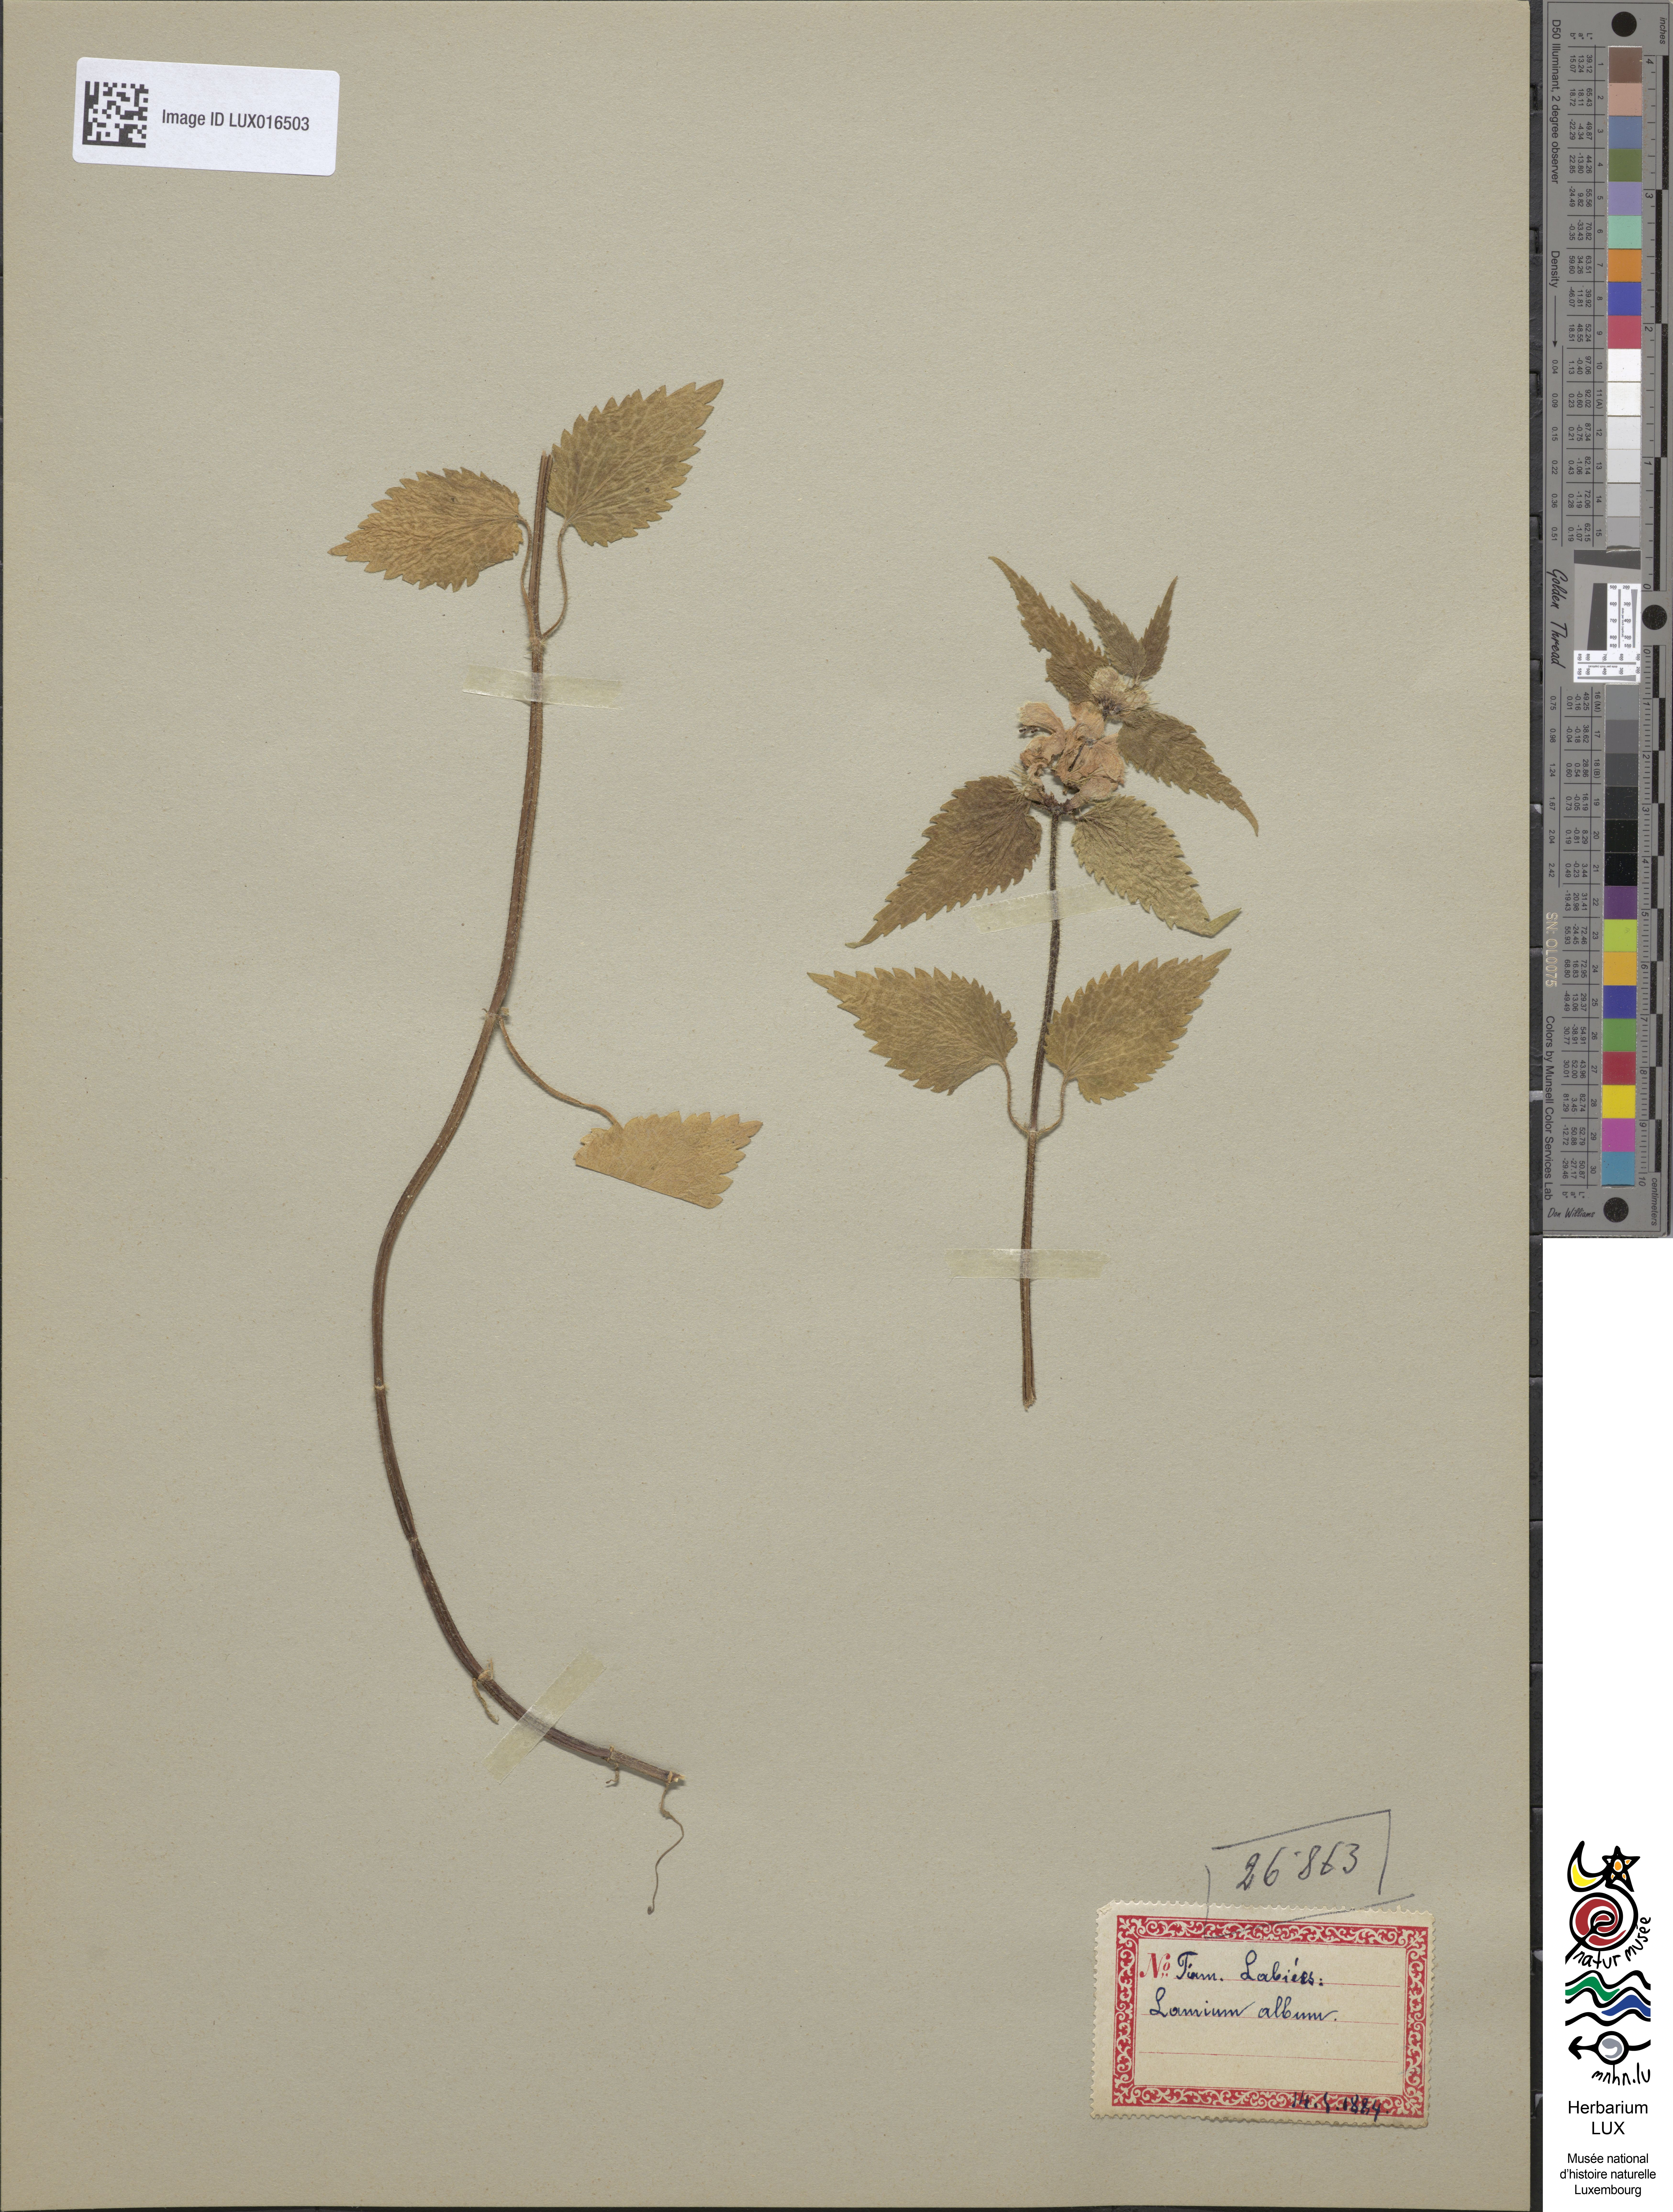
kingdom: Plantae
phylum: Tracheophyta
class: Magnoliopsida
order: Lamiales
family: Lamiaceae
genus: Lamium
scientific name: Lamium album
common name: White dead-nettle
